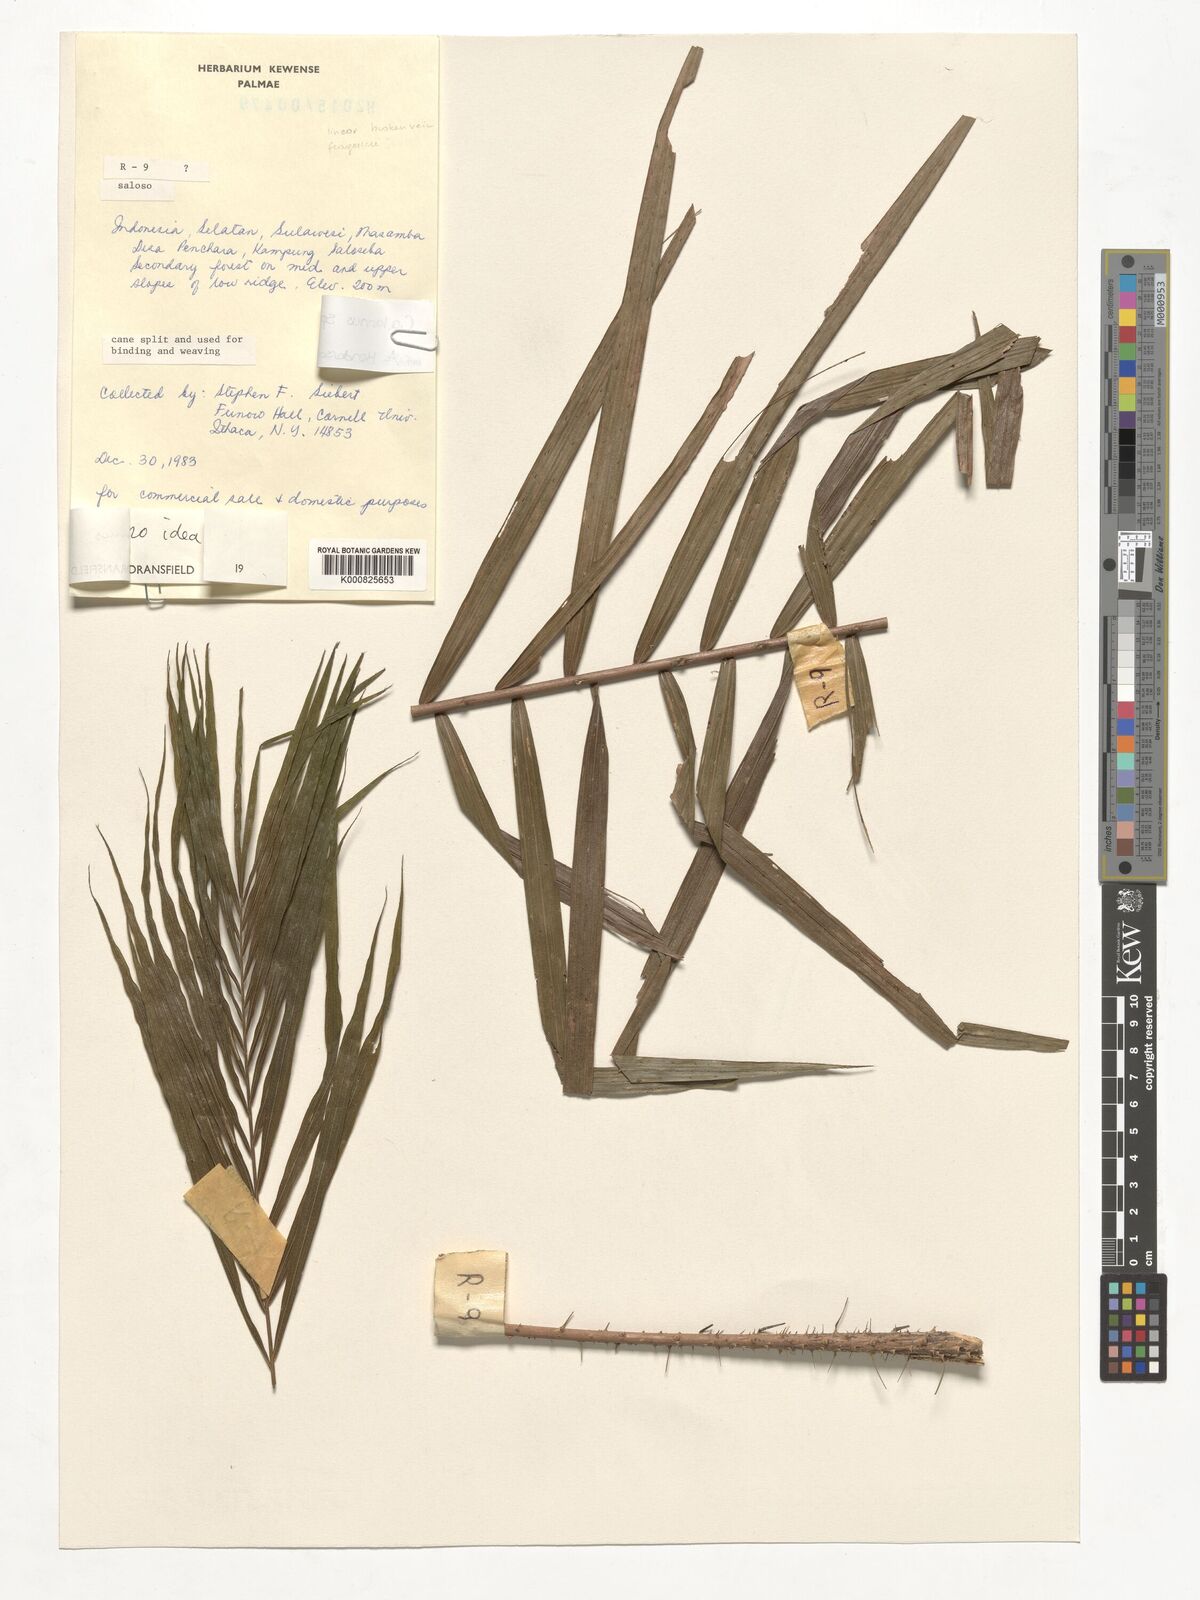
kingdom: Plantae
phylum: Tracheophyta
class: Liliopsida
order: Arecales
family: Arecaceae
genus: Calamus
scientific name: Calamus
